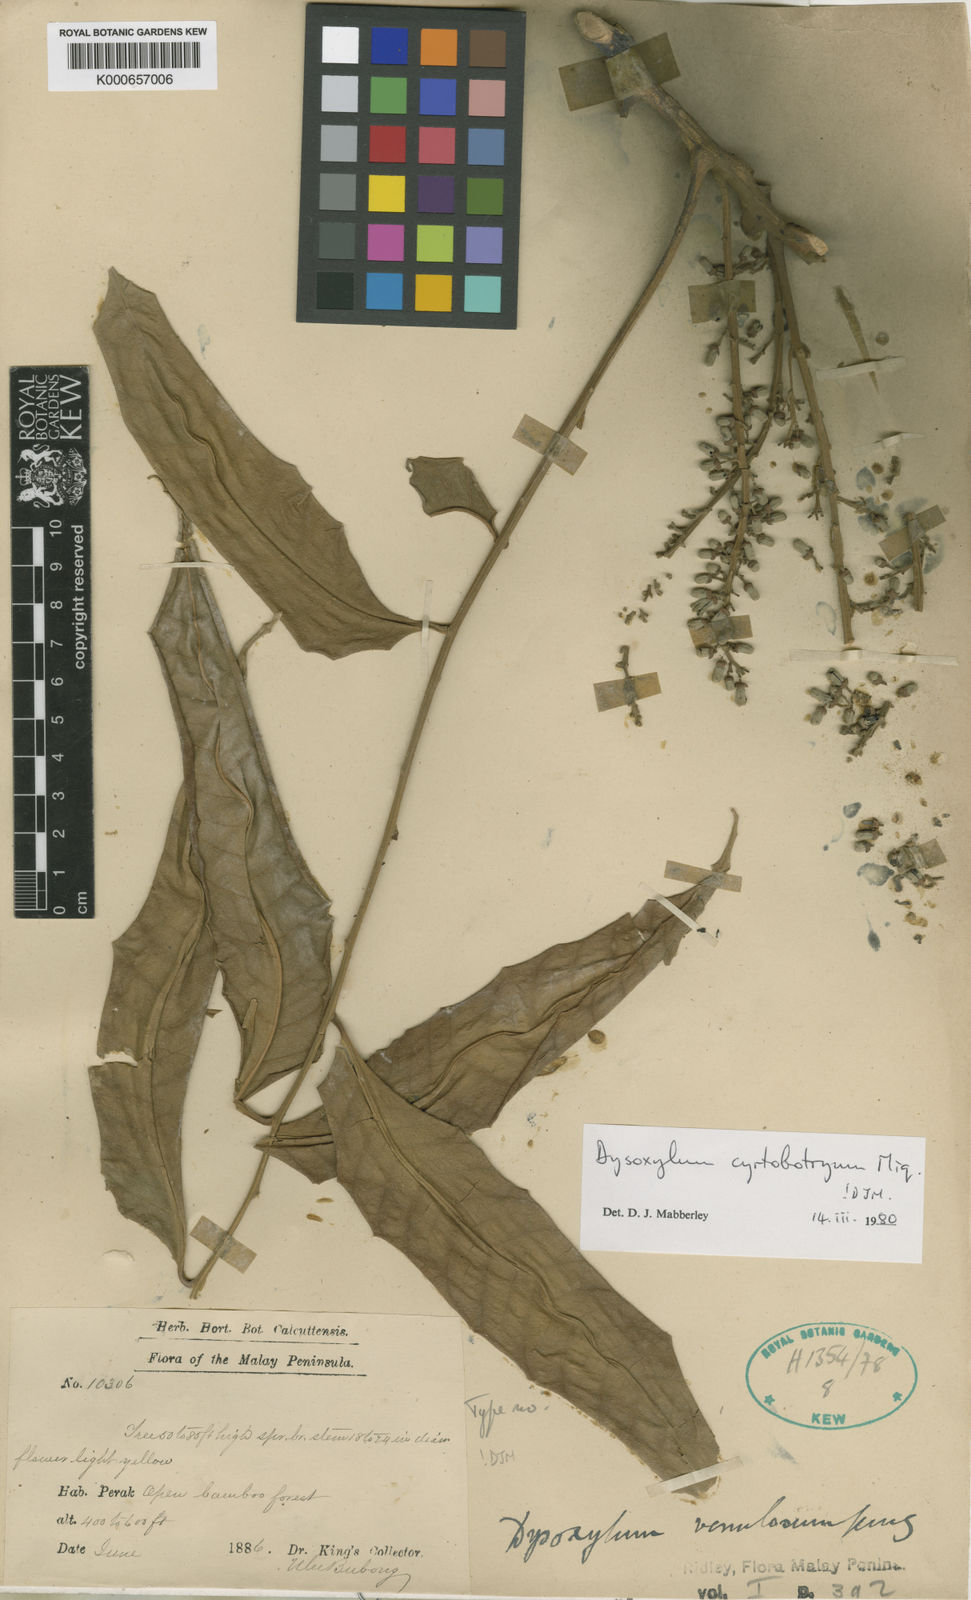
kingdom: Plantae
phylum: Tracheophyta
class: Magnoliopsida
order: Sapindales
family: Meliaceae
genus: Dysoxylum
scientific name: Dysoxylum cyrtobotryum
